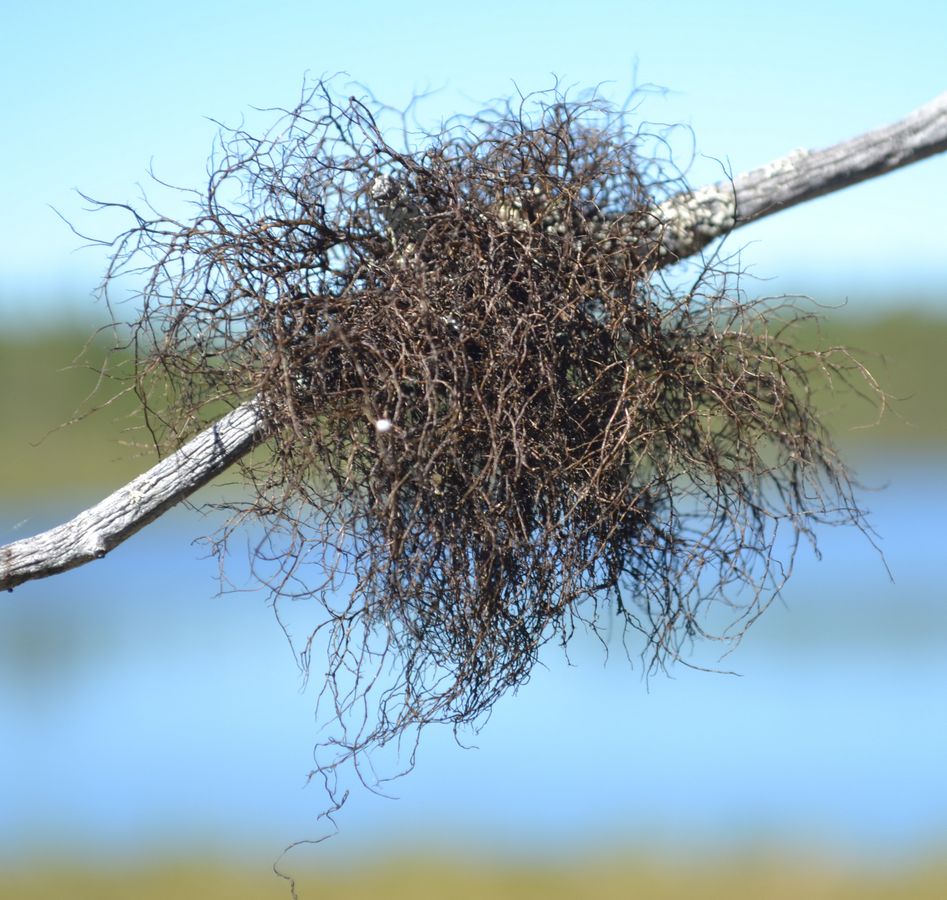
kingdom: Fungi
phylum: Ascomycota
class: Lecanoromycetes
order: Lecanorales
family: Parmeliaceae
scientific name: Parmeliaceae
